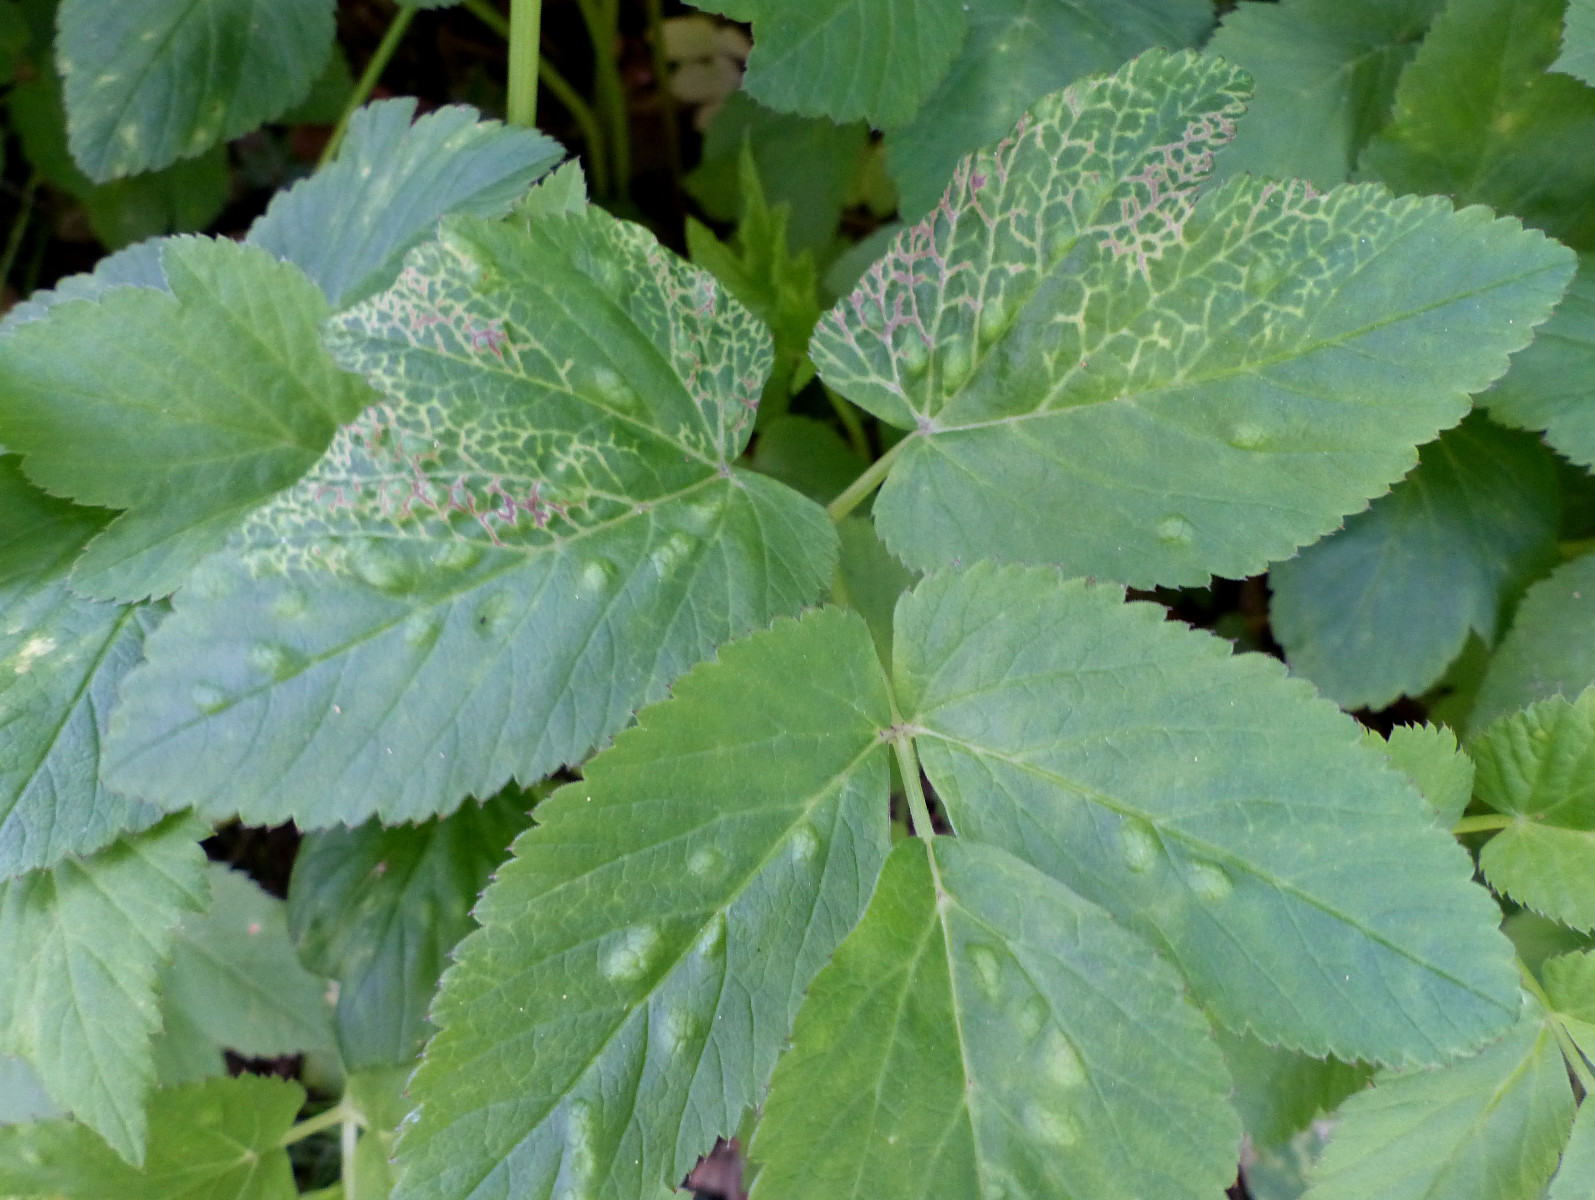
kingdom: Fungi
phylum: Ascomycota
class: Taphrinomycetes
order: Taphrinales
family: Taphrinaceae
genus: Protomyces
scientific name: Protomyces macrosporus
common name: skvalderkål-vablesæk
